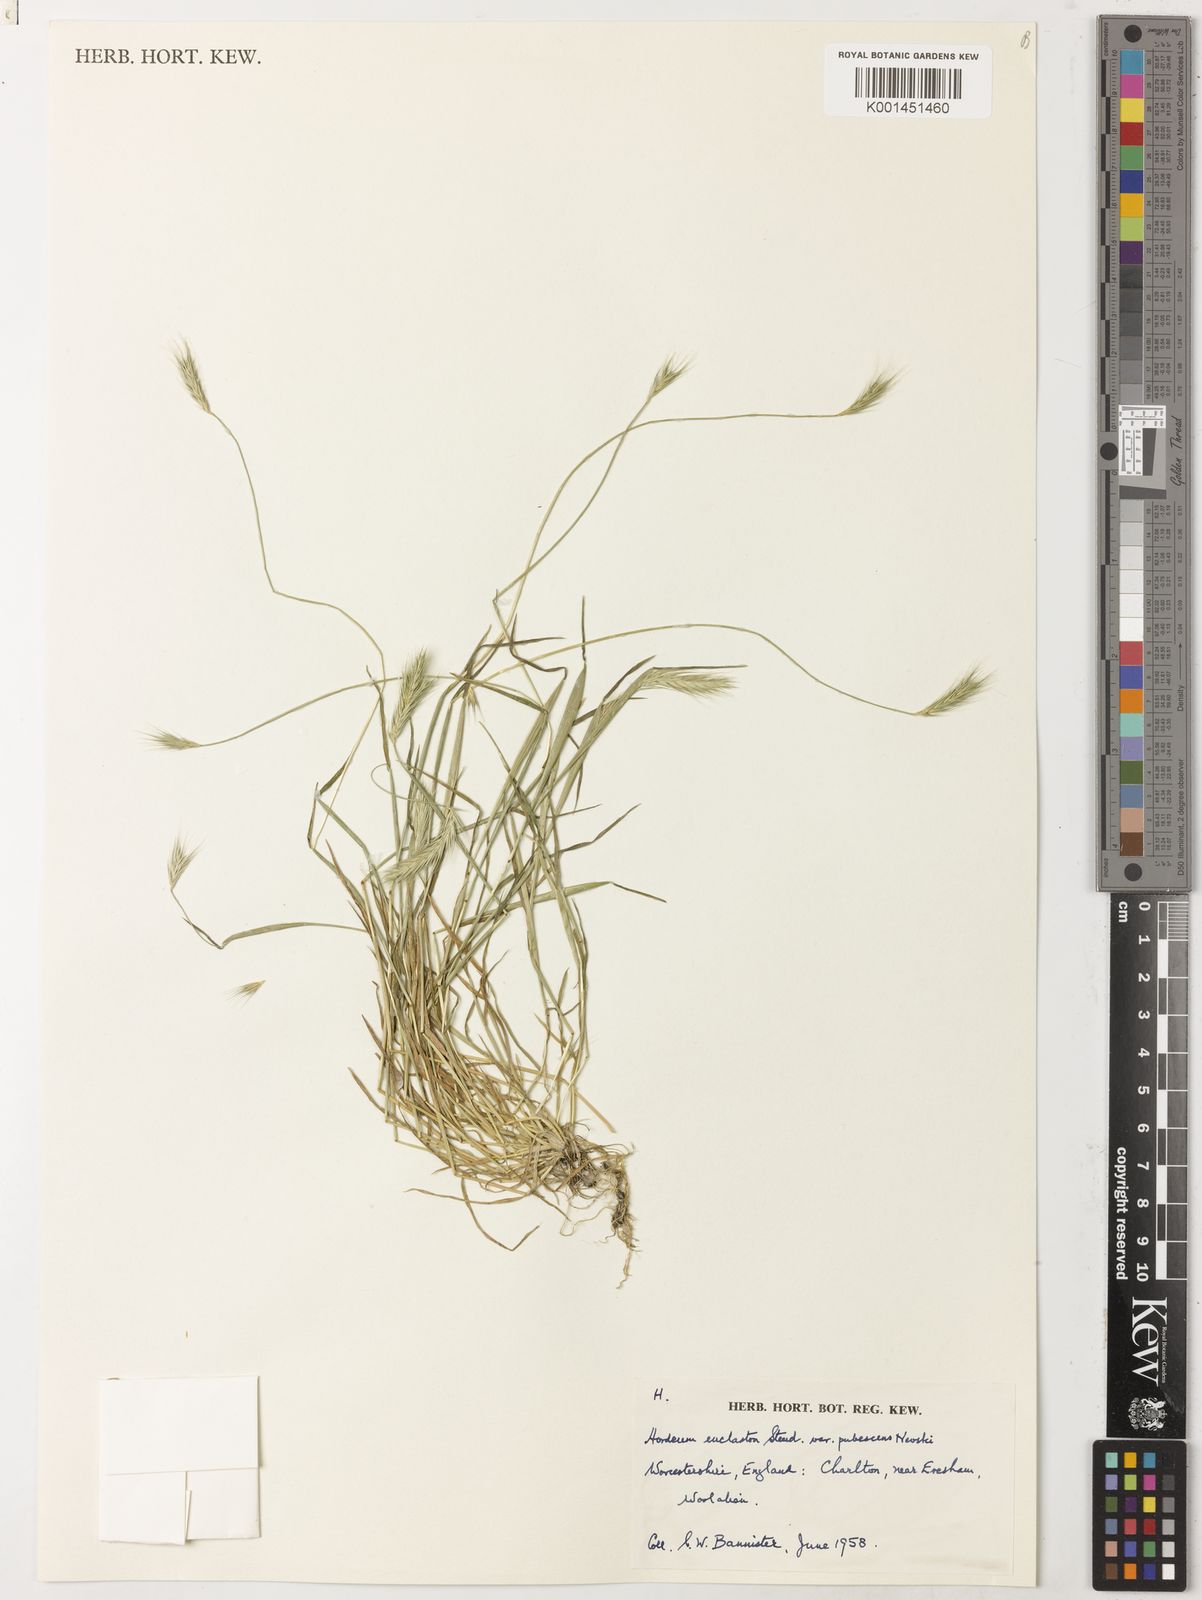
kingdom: Plantae
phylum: Tracheophyta
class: Liliopsida
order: Poales
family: Poaceae
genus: Hordeum
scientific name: Hordeum euclaston
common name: Argentine barley
